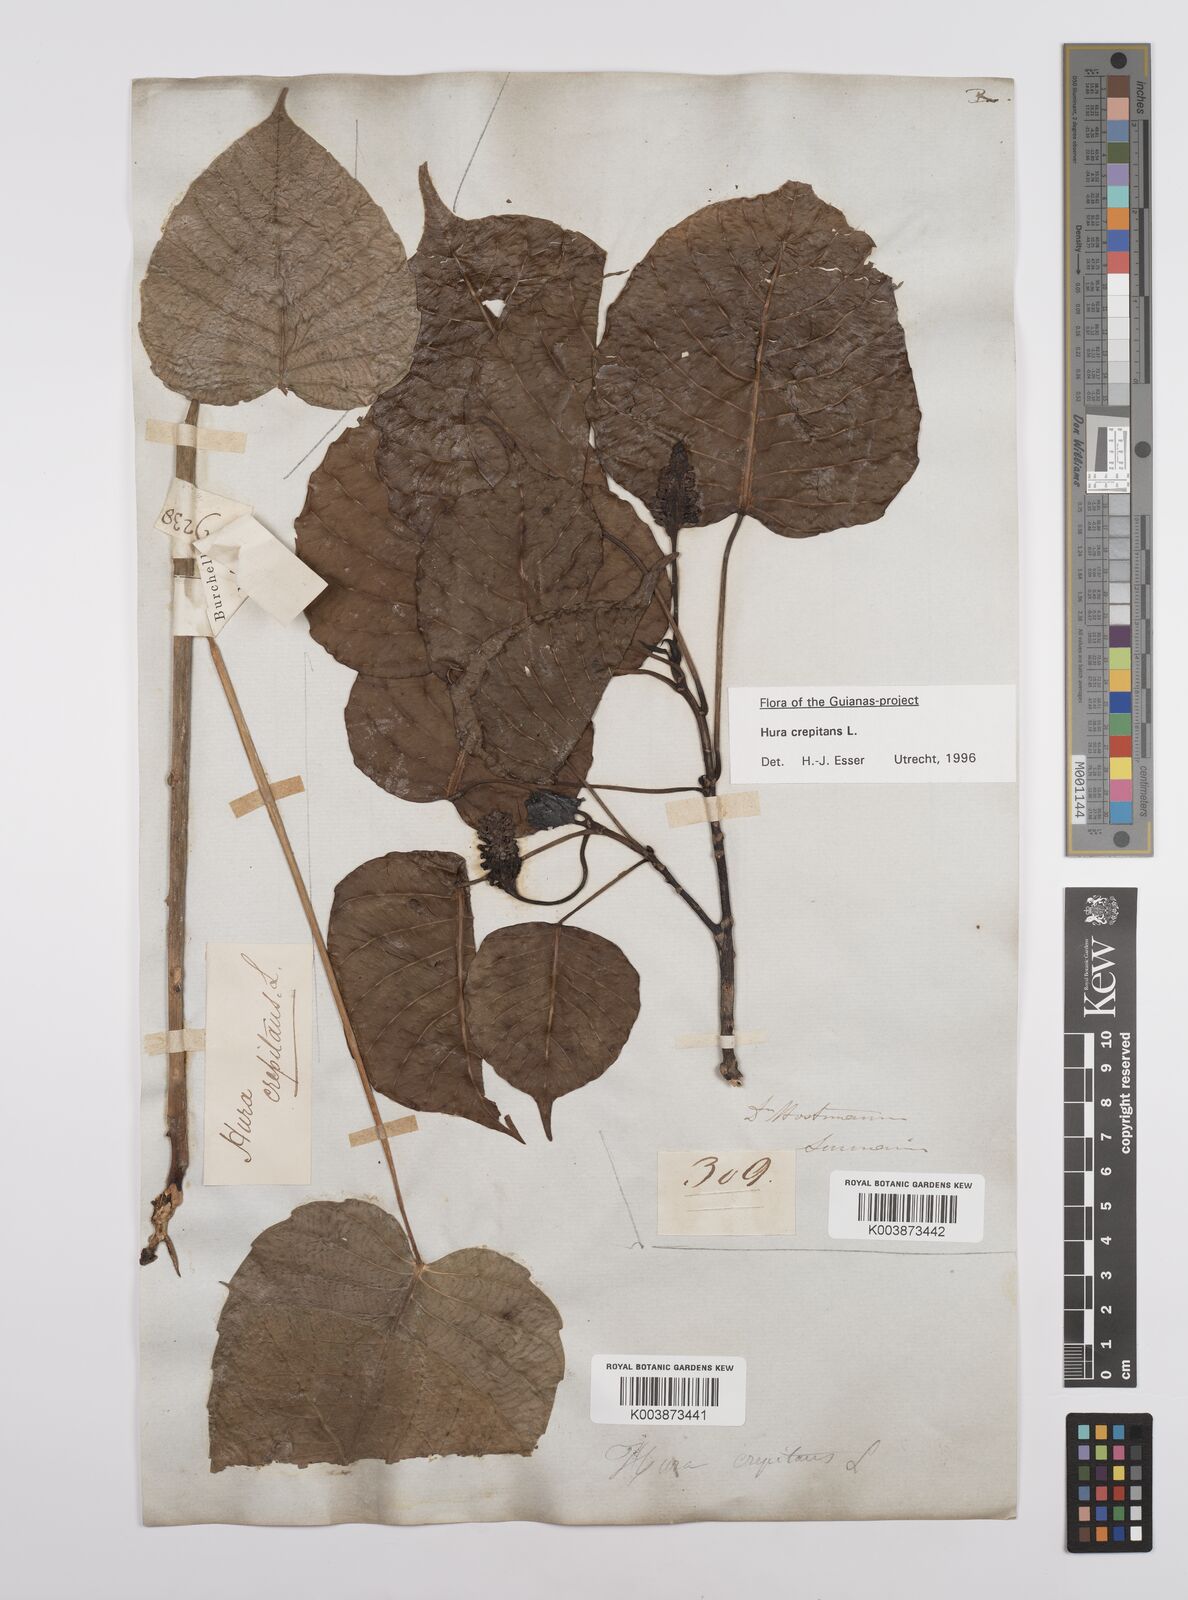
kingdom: Plantae
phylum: Tracheophyta
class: Magnoliopsida
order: Malpighiales
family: Euphorbiaceae
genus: Hura
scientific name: Hura crepitans
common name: Sandboxtree
